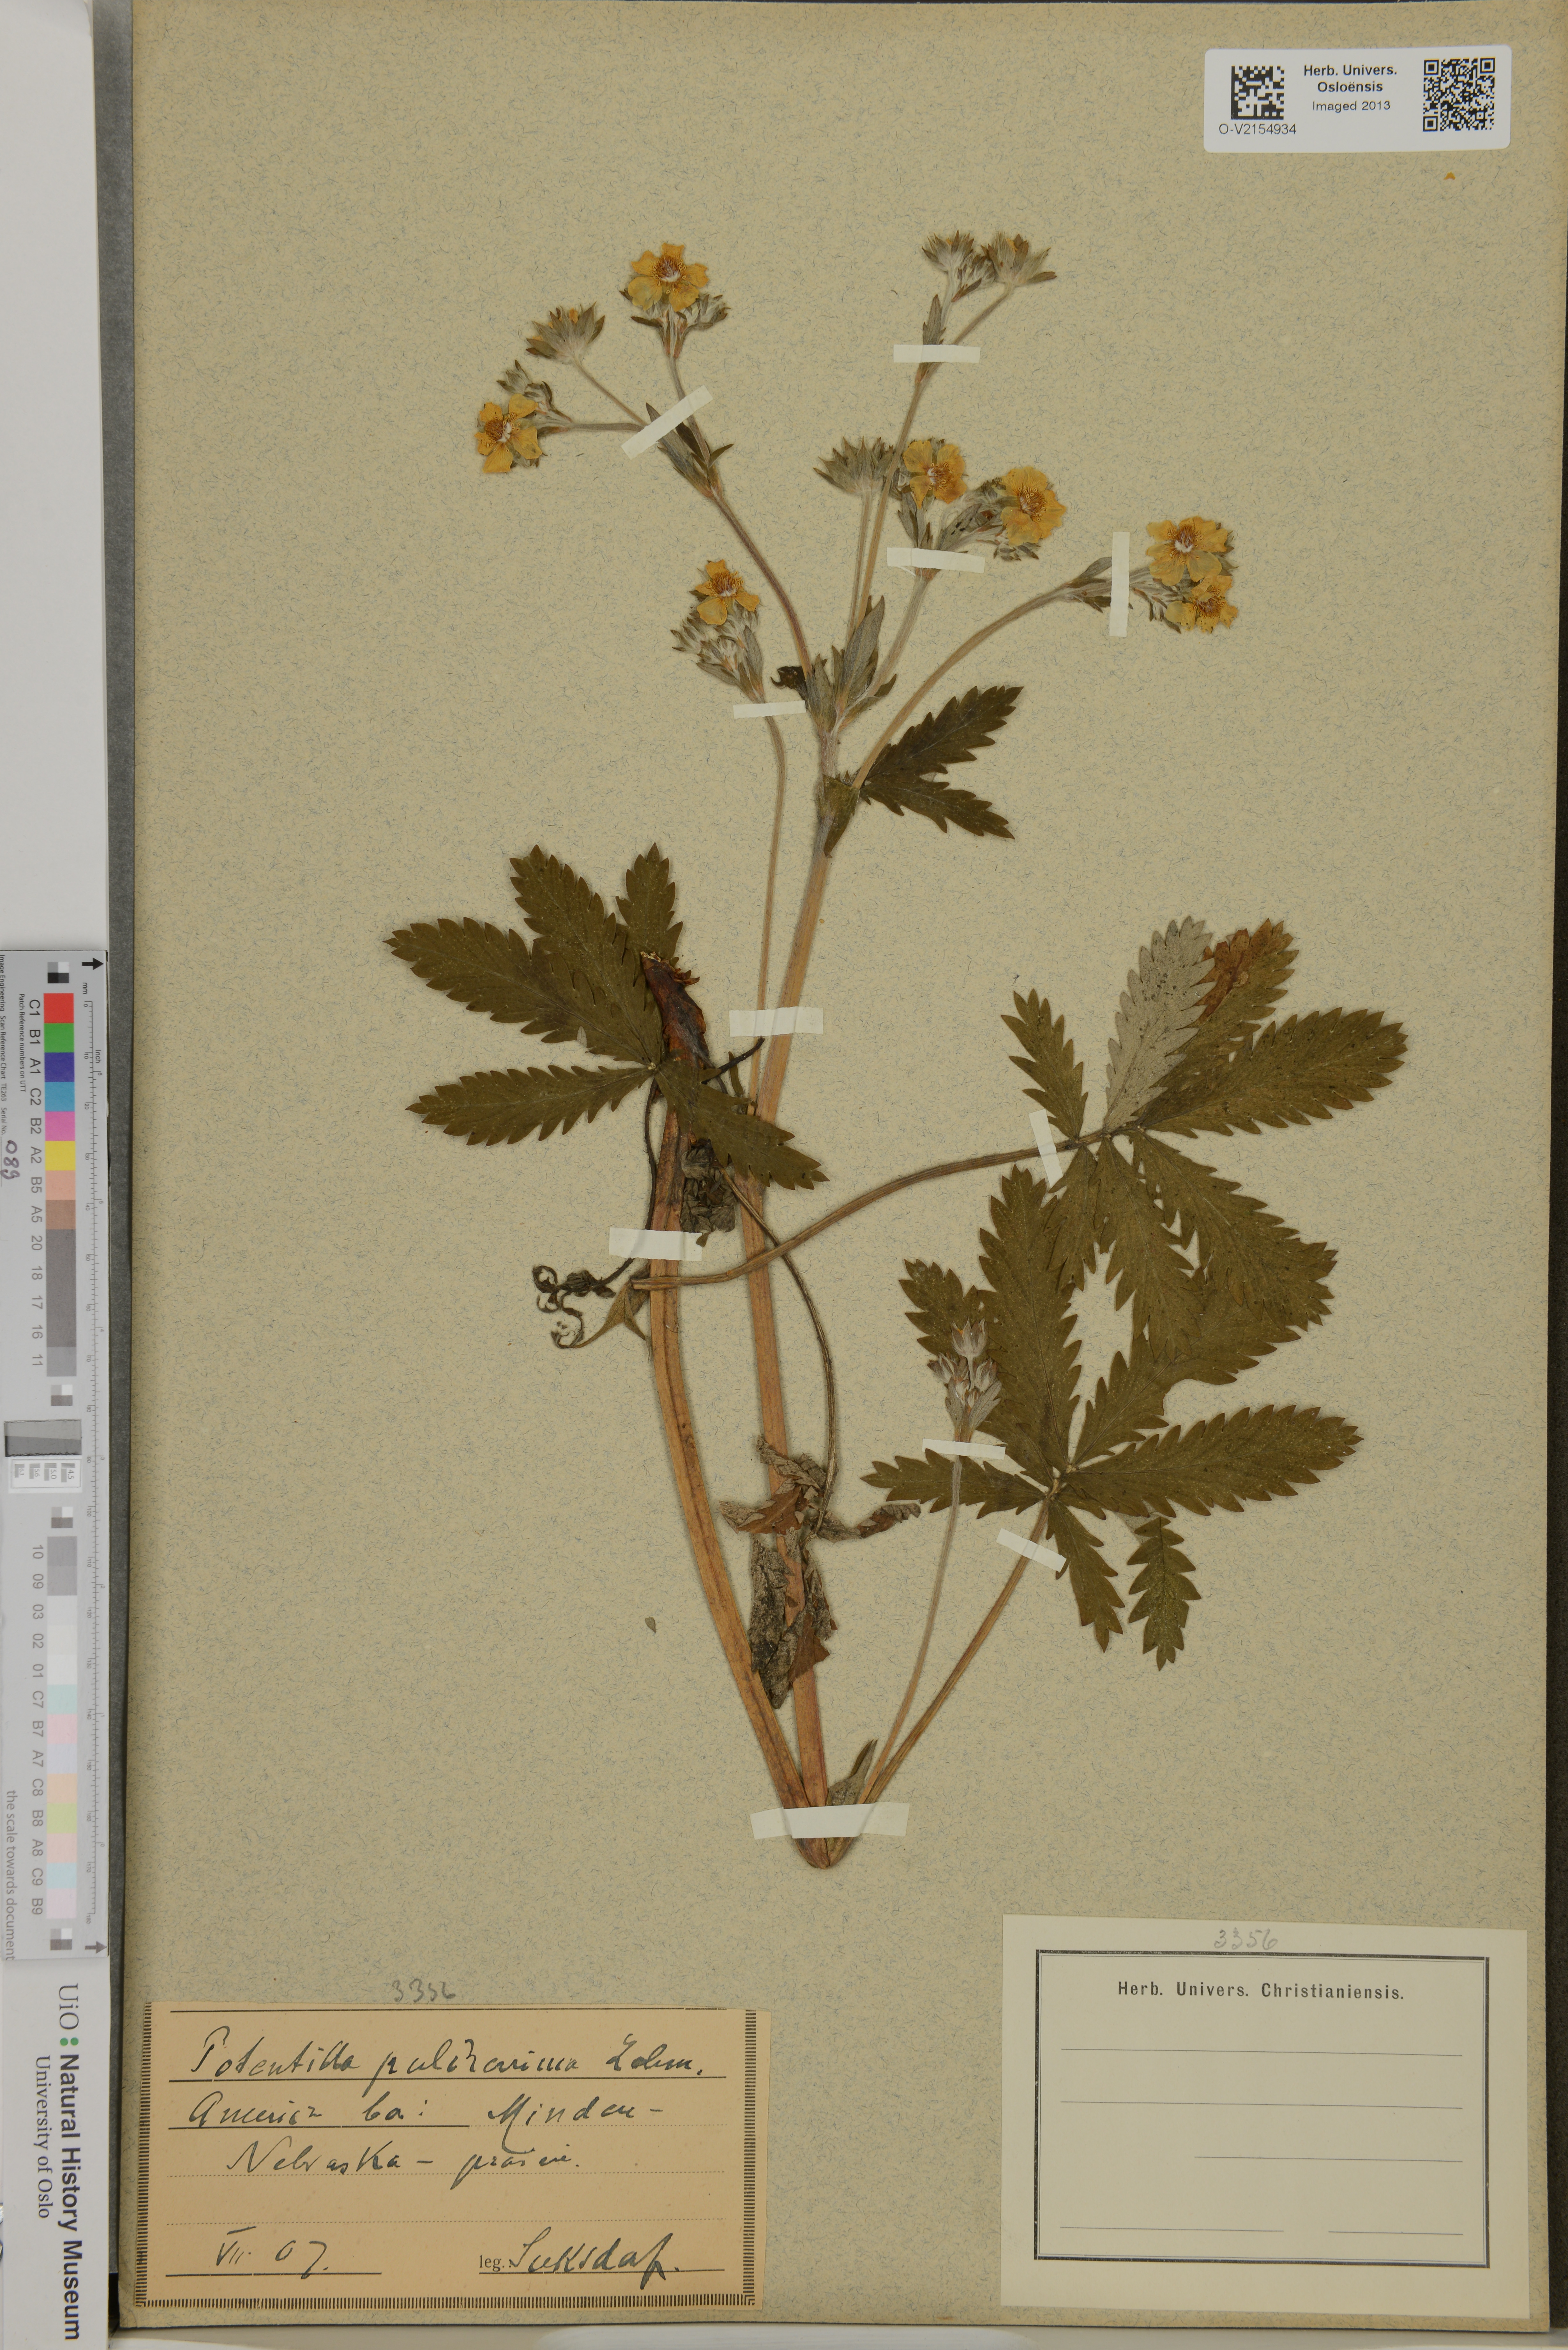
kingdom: Plantae
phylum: Tracheophyta
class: Magnoliopsida
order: Rosales
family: Rosaceae
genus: Potentilla
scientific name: Potentilla pulcherrima
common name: Beautiful cinquefoil
